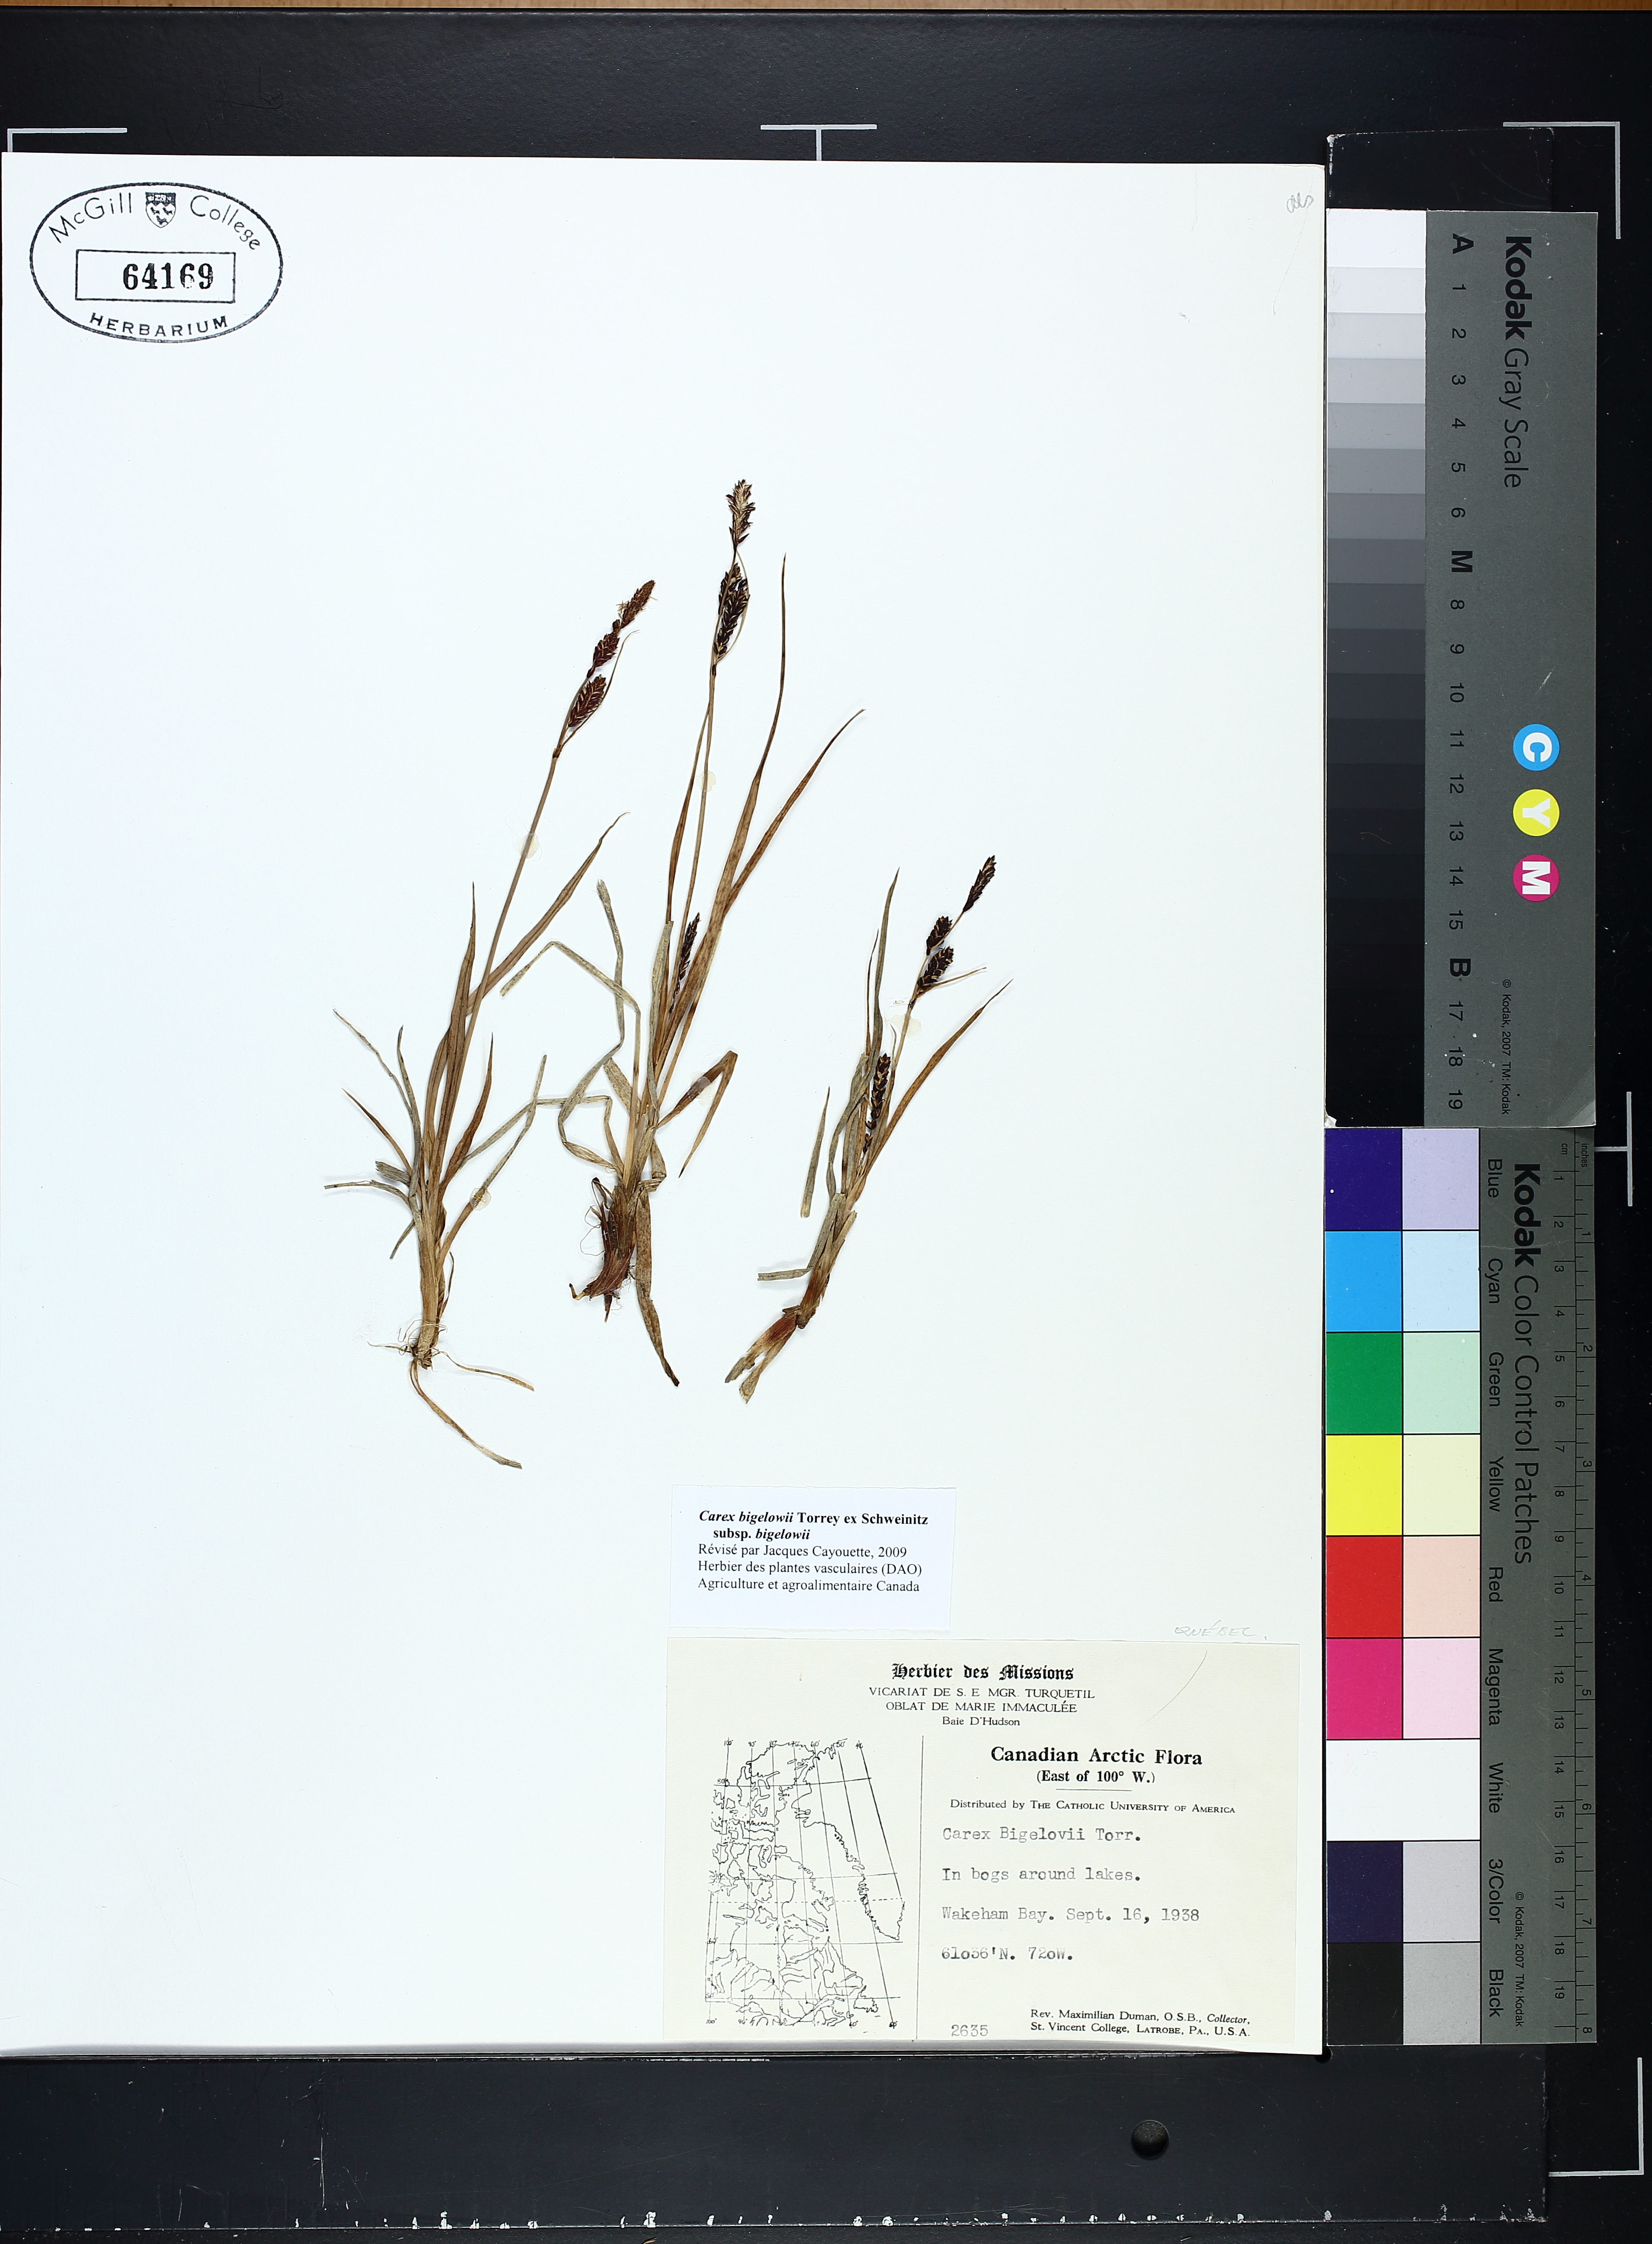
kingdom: Plantae
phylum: Tracheophyta
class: Liliopsida
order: Poales
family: Cyperaceae
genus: Carex
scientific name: Carex bigelowii
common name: Stiff sedge
